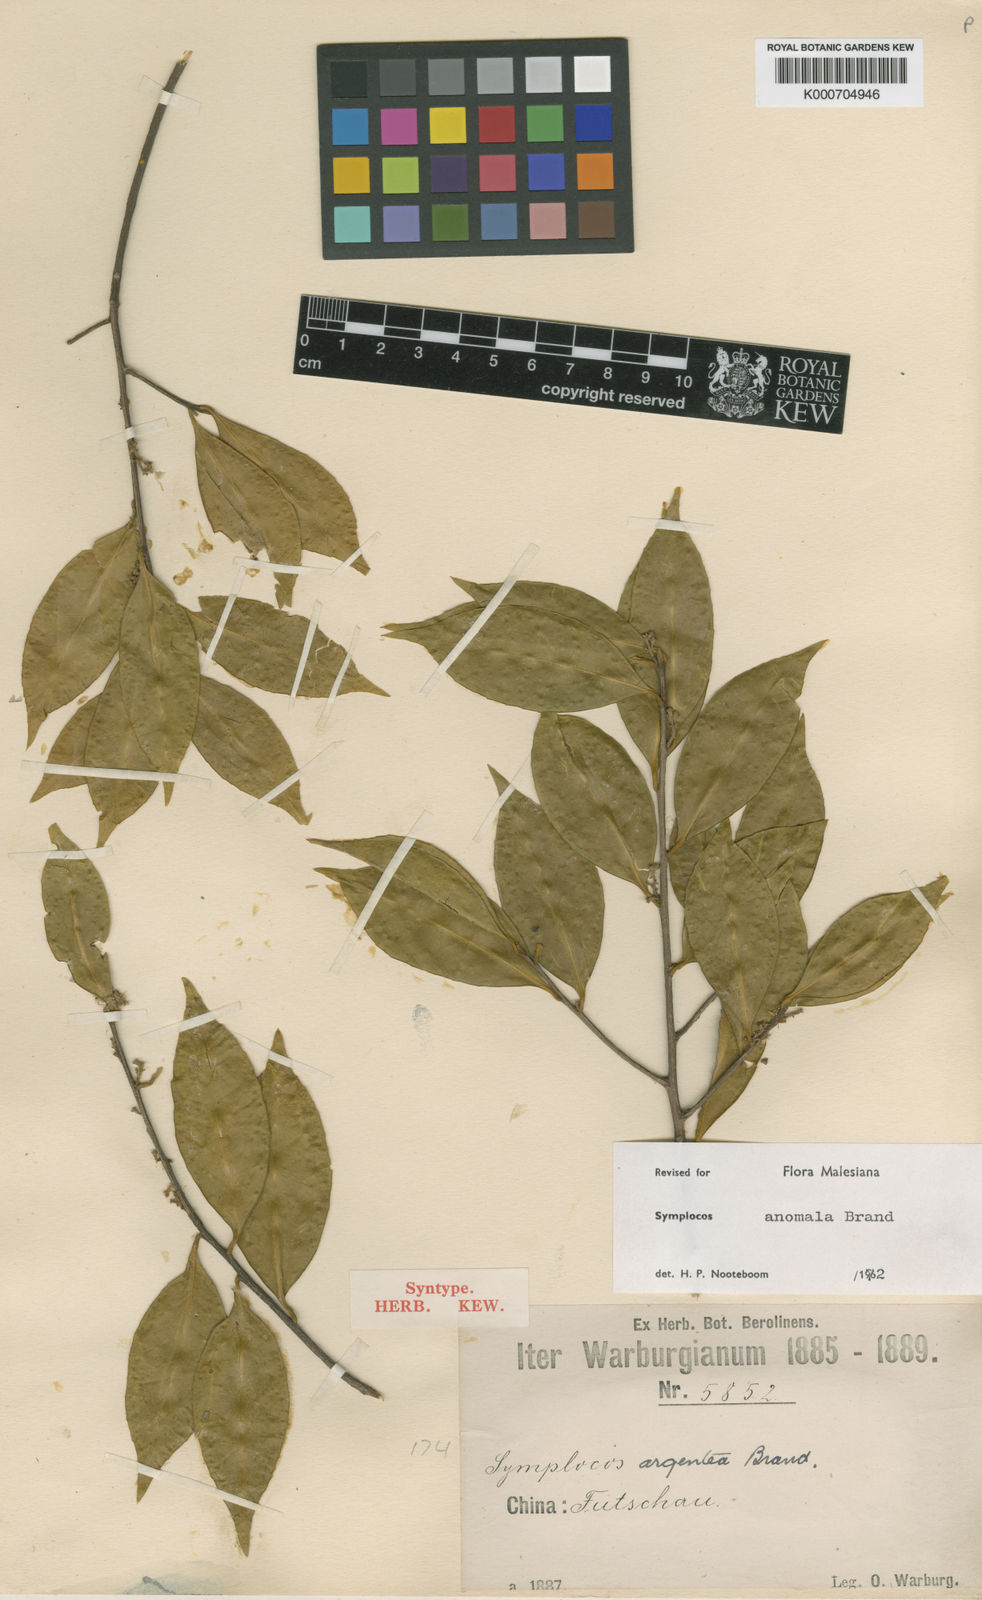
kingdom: Plantae
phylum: Tracheophyta
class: Magnoliopsida
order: Ericales
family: Symplocaceae
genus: Symplocos
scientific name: Symplocos anomala
